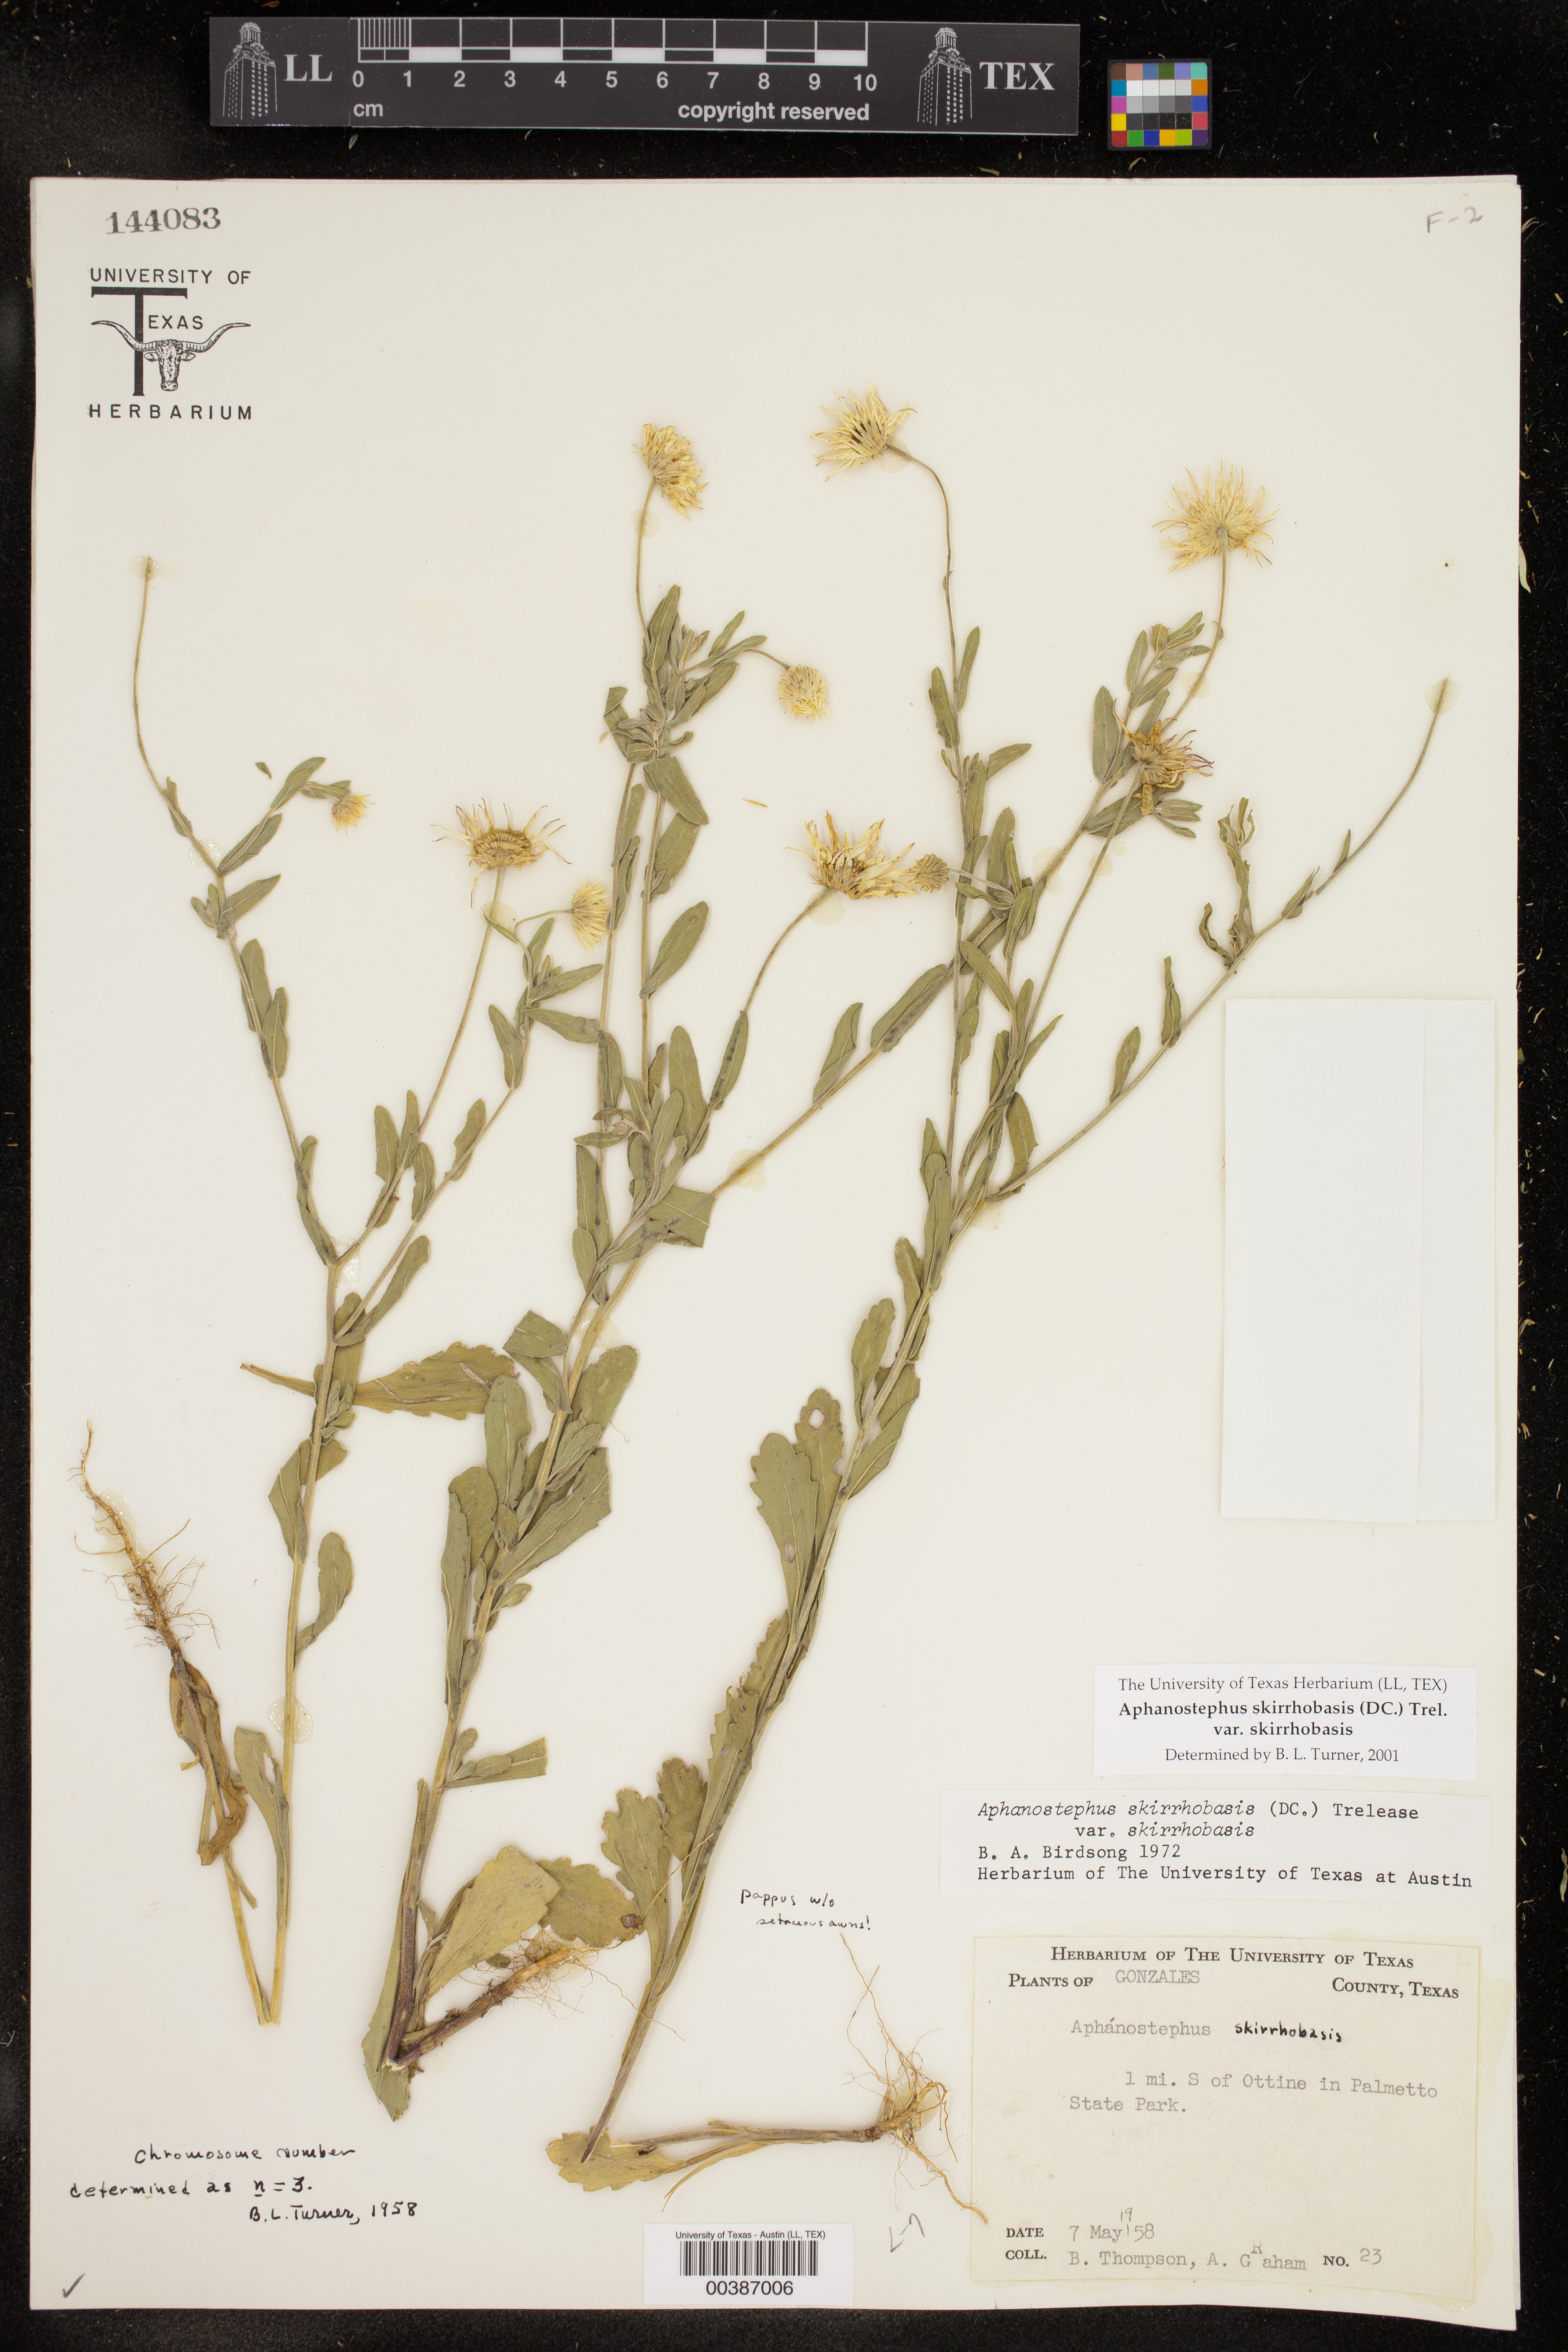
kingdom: Plantae
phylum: Tracheophyta
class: Magnoliopsida
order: Asterales
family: Asteraceae
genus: Aphanostephus
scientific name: Aphanostephus skirrhobasis
